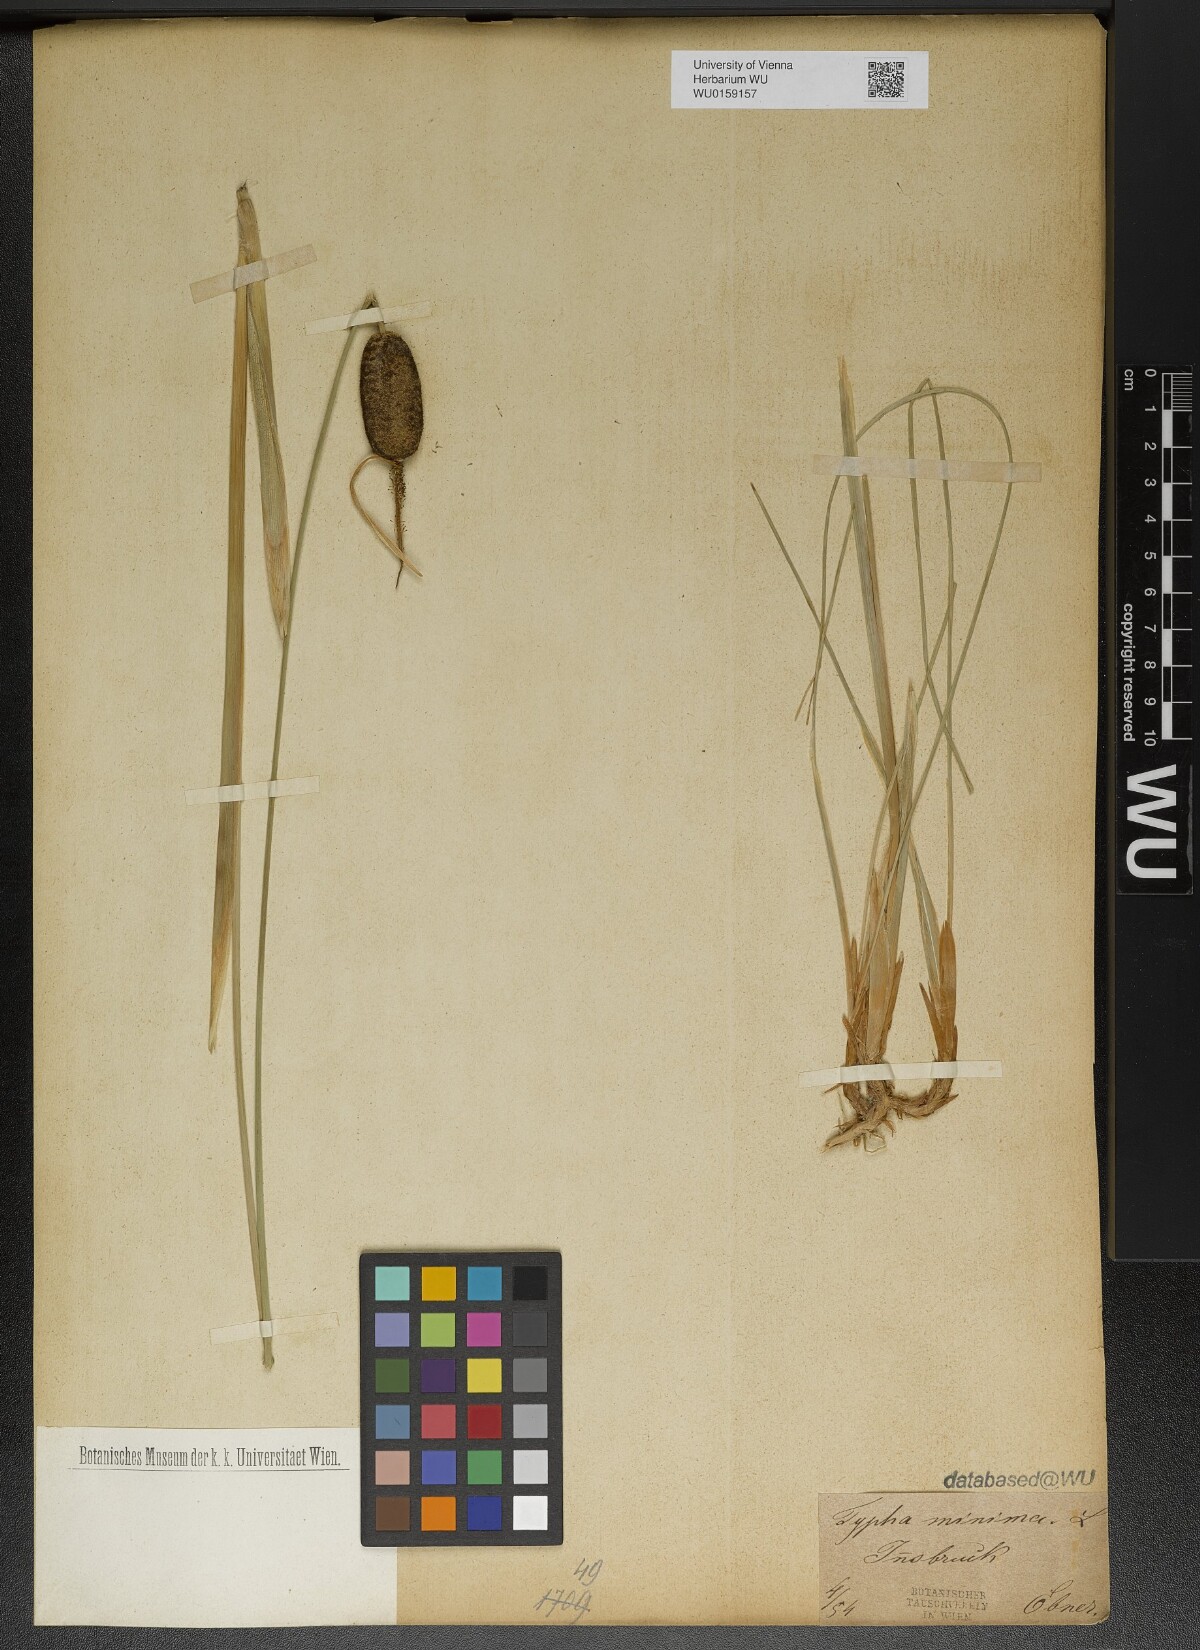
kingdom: Plantae
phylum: Tracheophyta
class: Liliopsida
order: Poales
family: Typhaceae
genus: Typha
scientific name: Typha minima
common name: Dwarf bulrush
